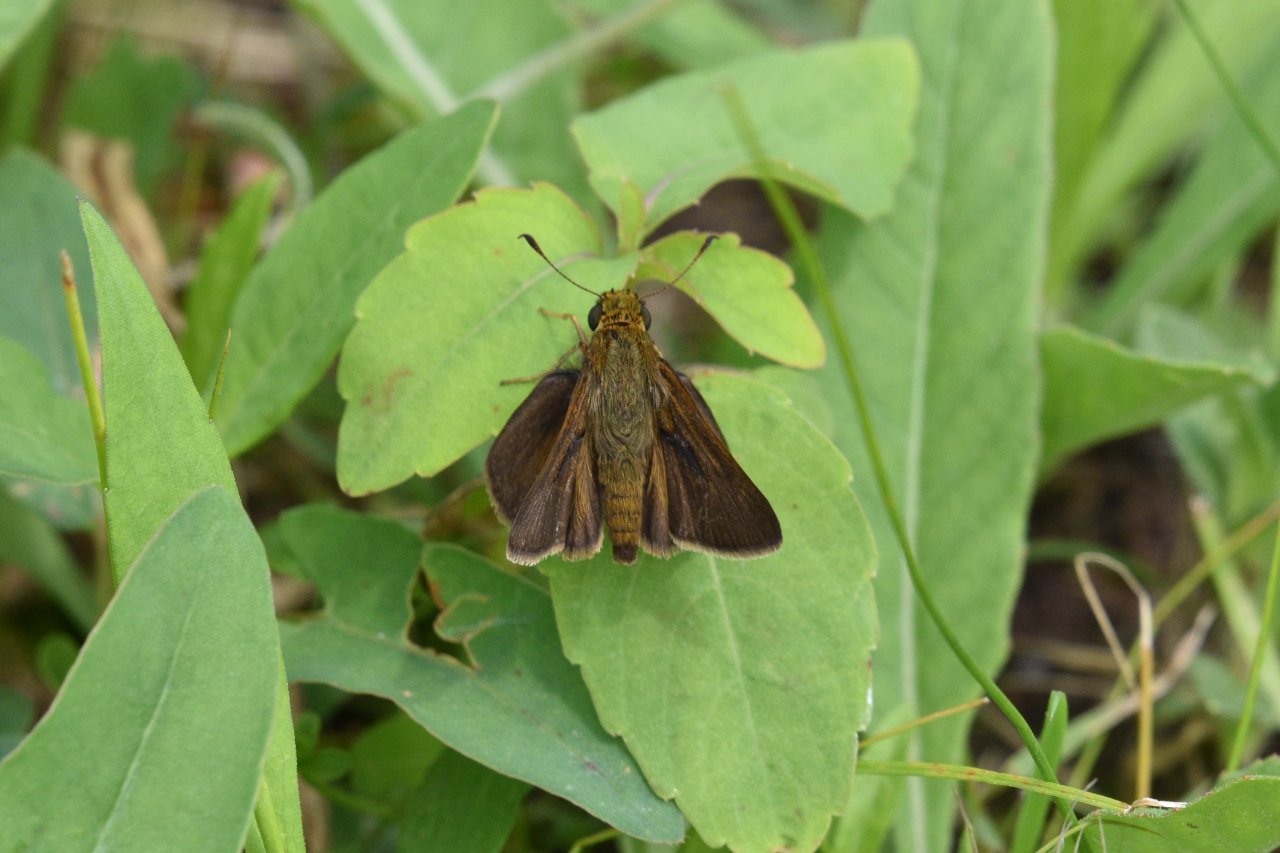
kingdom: Animalia
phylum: Arthropoda
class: Insecta
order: Lepidoptera
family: Hesperiidae
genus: Euphyes
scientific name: Euphyes vestris
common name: Dun Skipper
